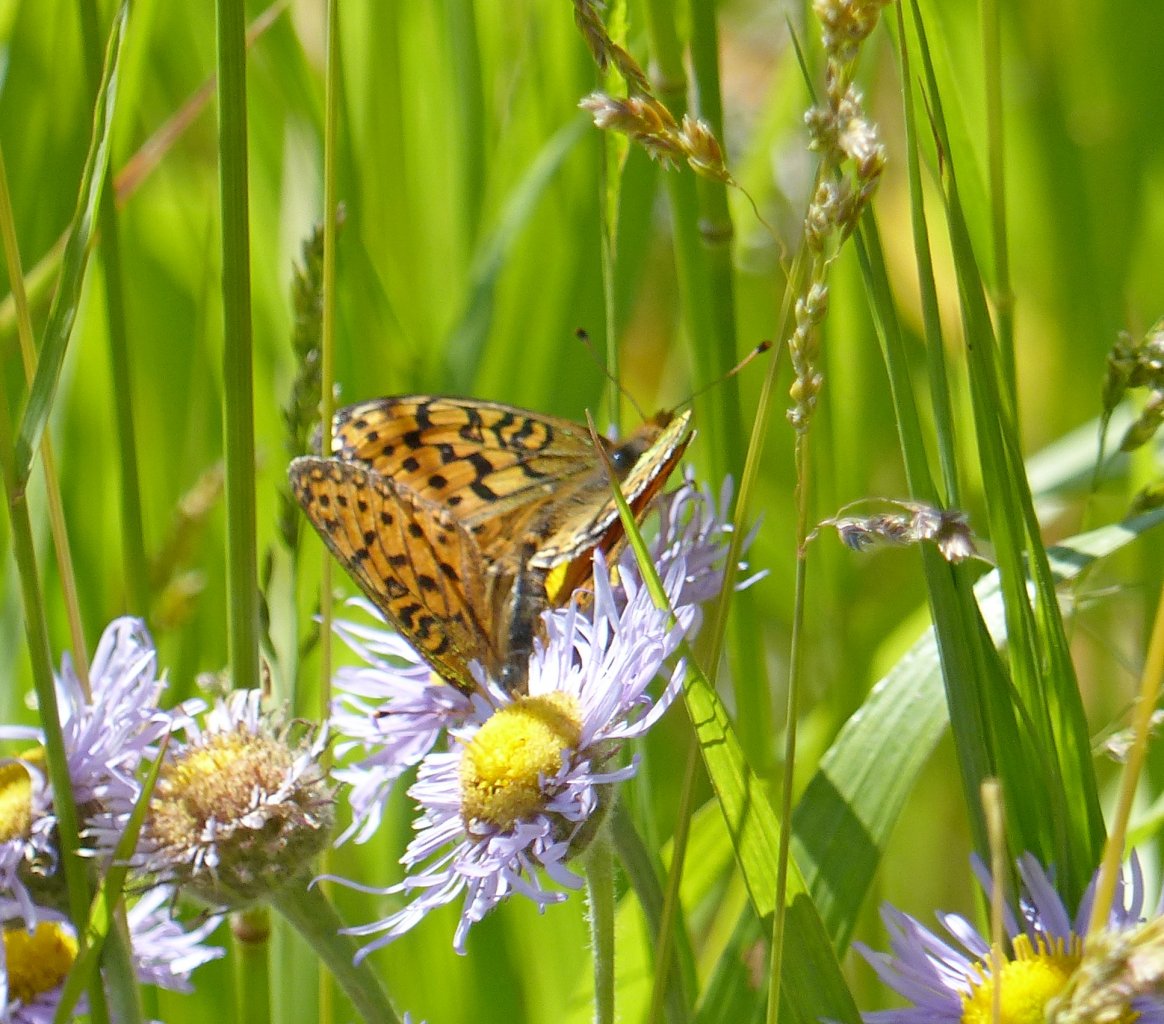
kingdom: Animalia
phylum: Arthropoda
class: Insecta
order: Lepidoptera
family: Nymphalidae
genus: Speyeria
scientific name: Speyeria zerene
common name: Zerene Fritillary
